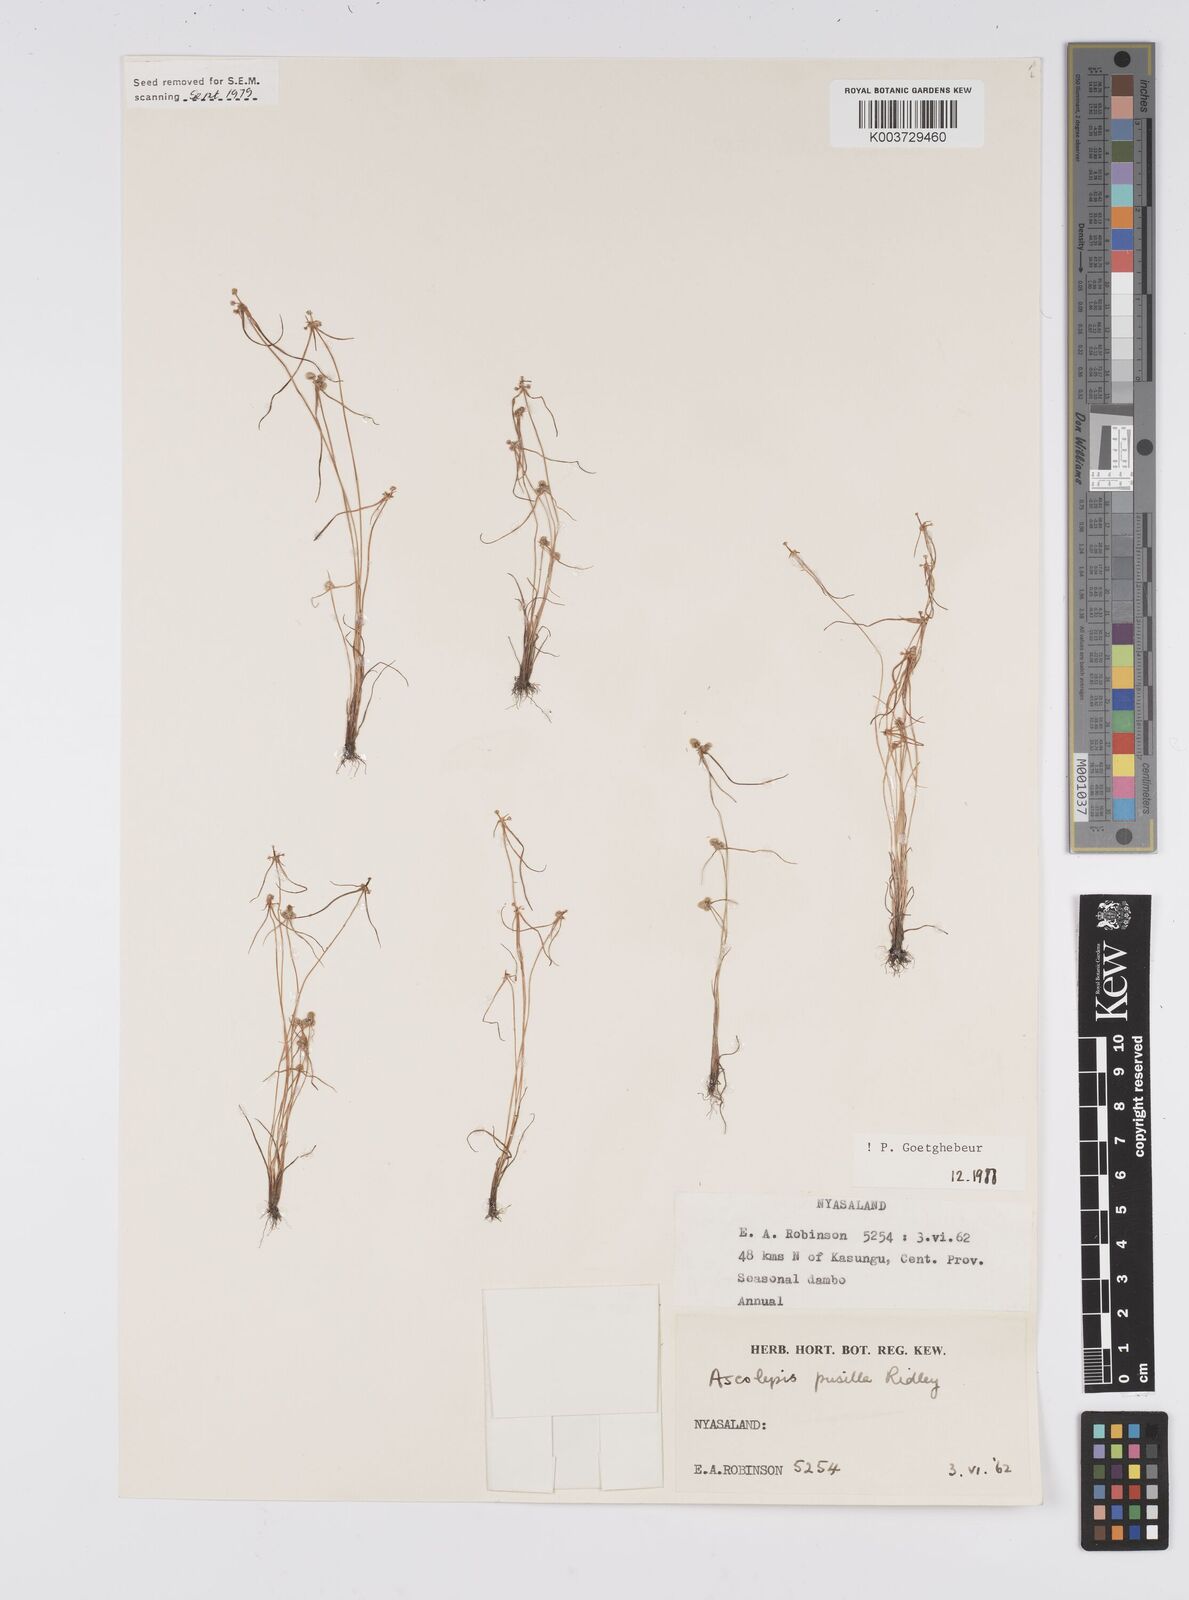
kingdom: Plantae
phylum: Tracheophyta
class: Liliopsida
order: Poales
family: Cyperaceae
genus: Cyperus
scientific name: Cyperus
